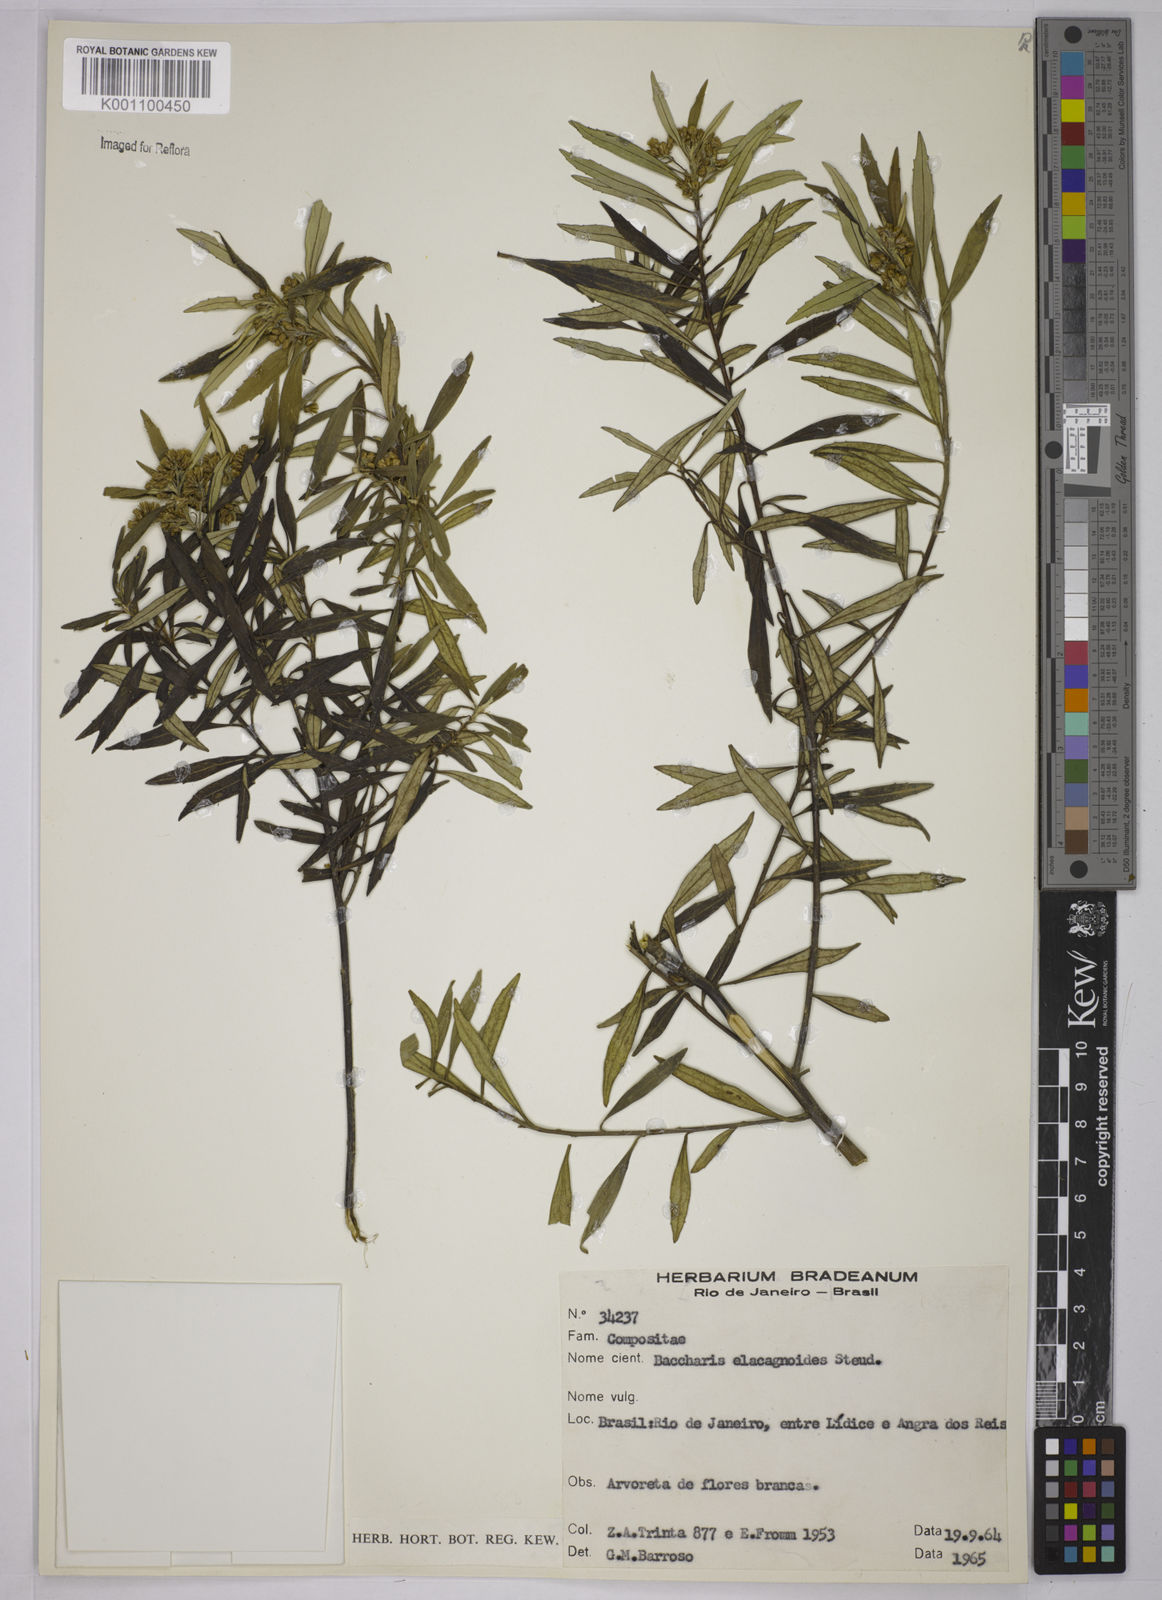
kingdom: Plantae
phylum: Tracheophyta
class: Magnoliopsida
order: Asterales
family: Asteraceae
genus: Baccharis
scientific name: Baccharis
